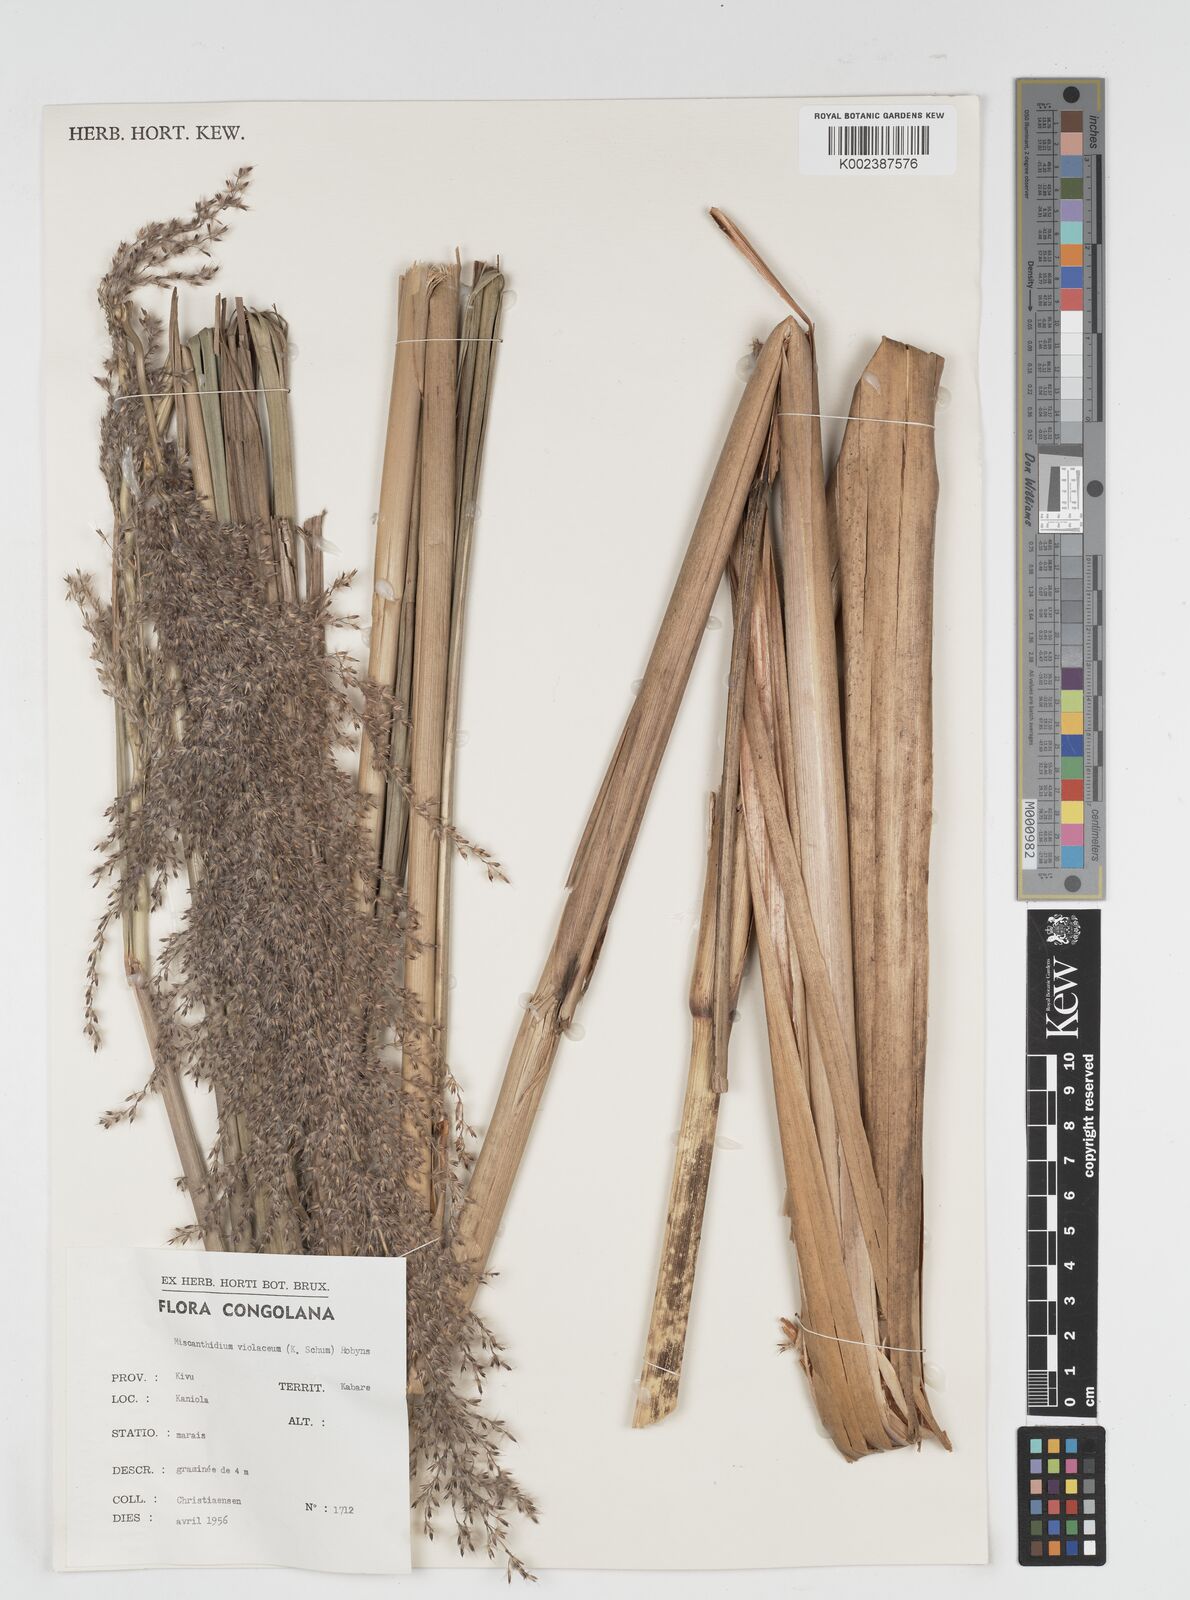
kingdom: Plantae
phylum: Tracheophyta
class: Liliopsida
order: Poales
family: Poaceae
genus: Miscanthidium
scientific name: Miscanthidium violaceum
